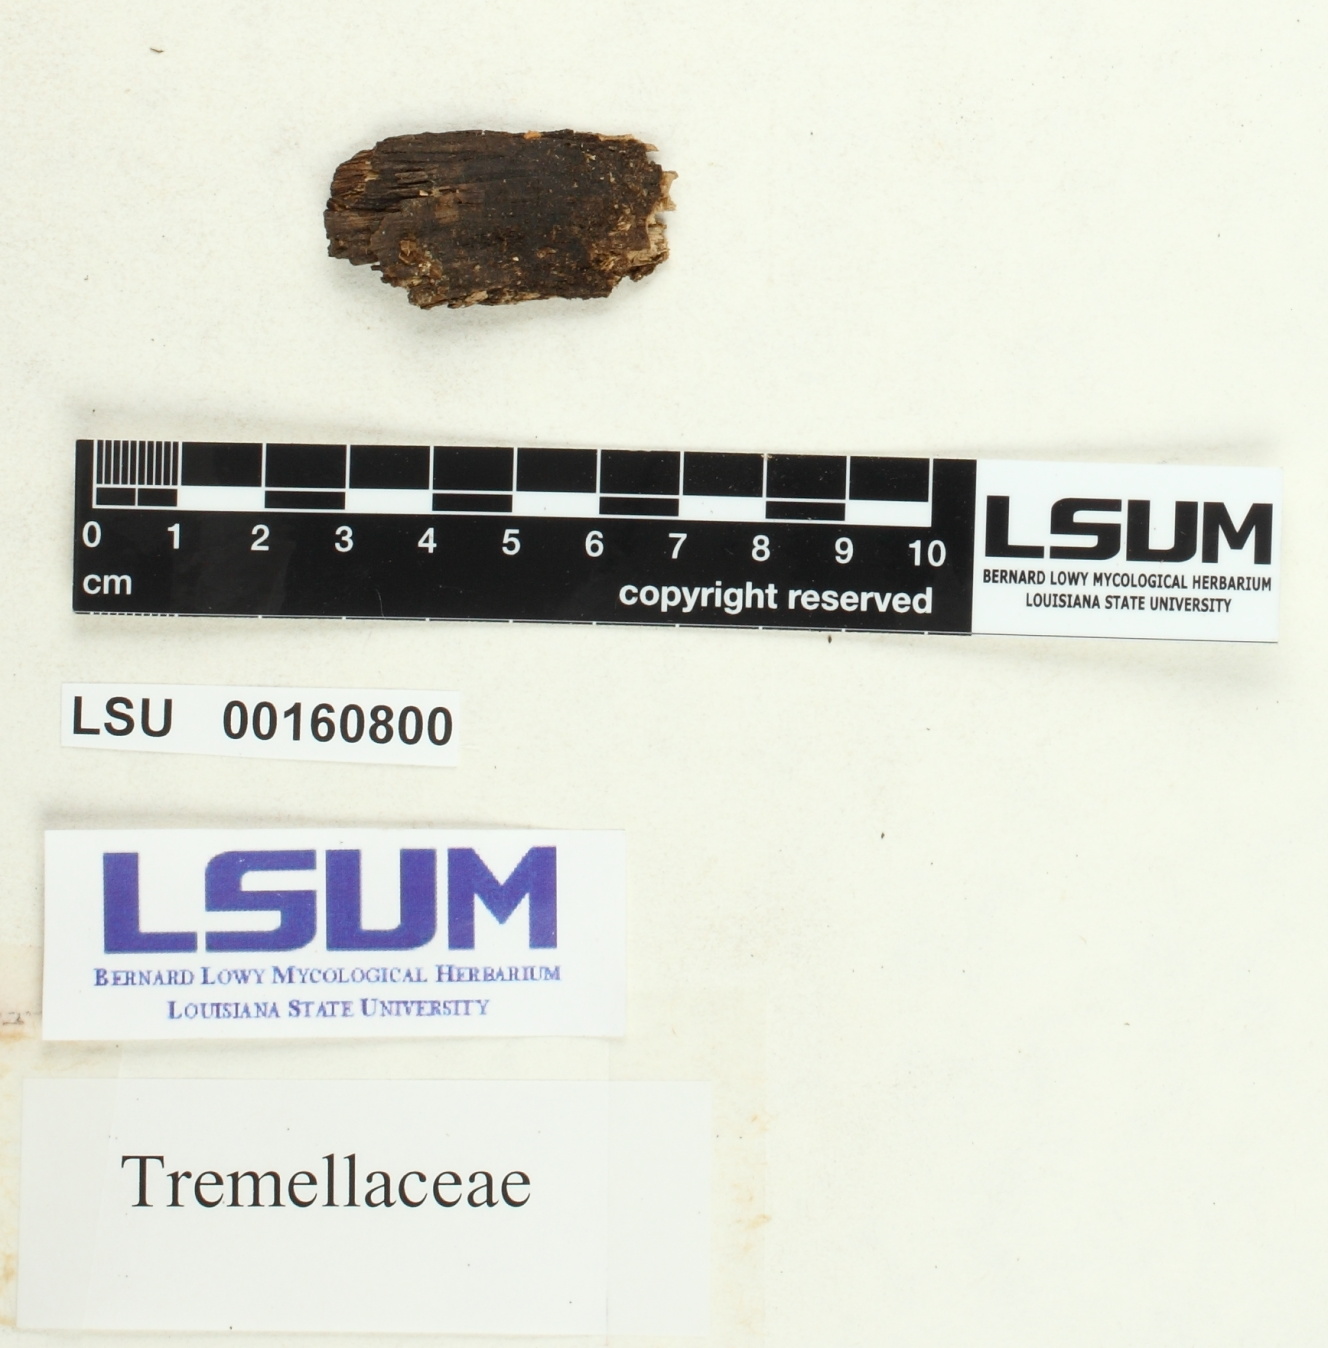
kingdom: Fungi
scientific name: Fungi
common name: Fungi
